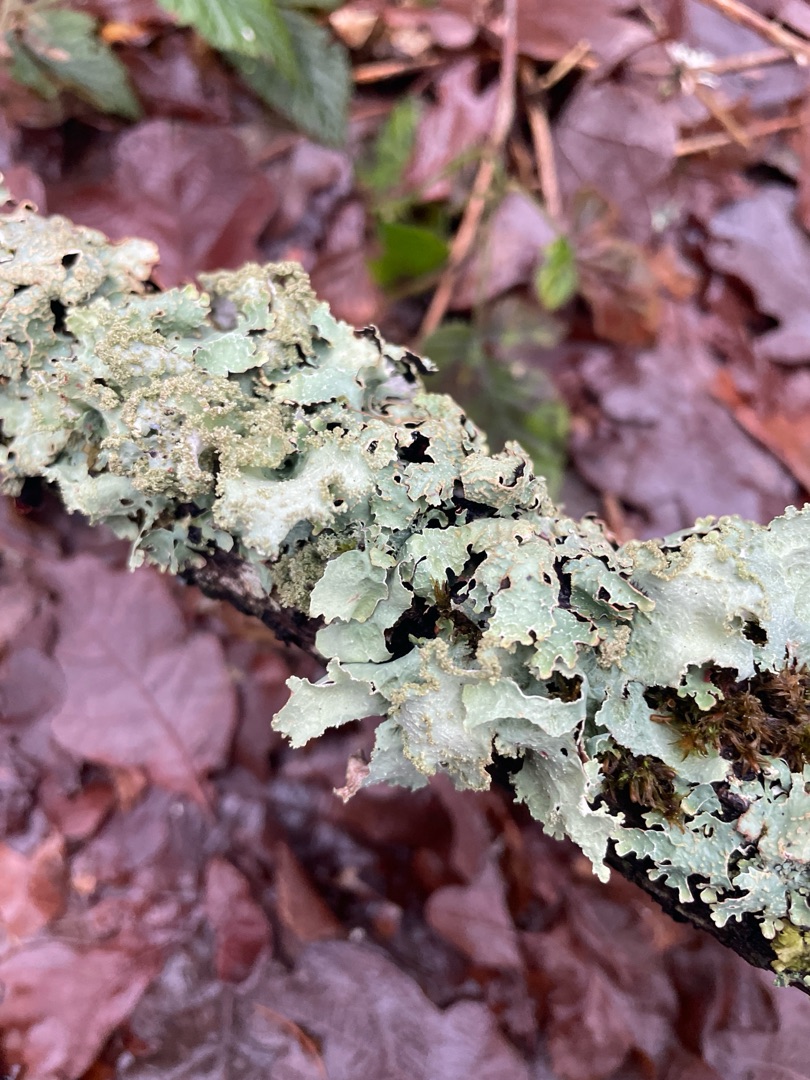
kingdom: Fungi
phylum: Ascomycota
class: Lecanoromycetes
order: Lecanorales
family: Parmeliaceae
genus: Platismatia
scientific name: Platismatia glauca
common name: Blågrå papirlav
